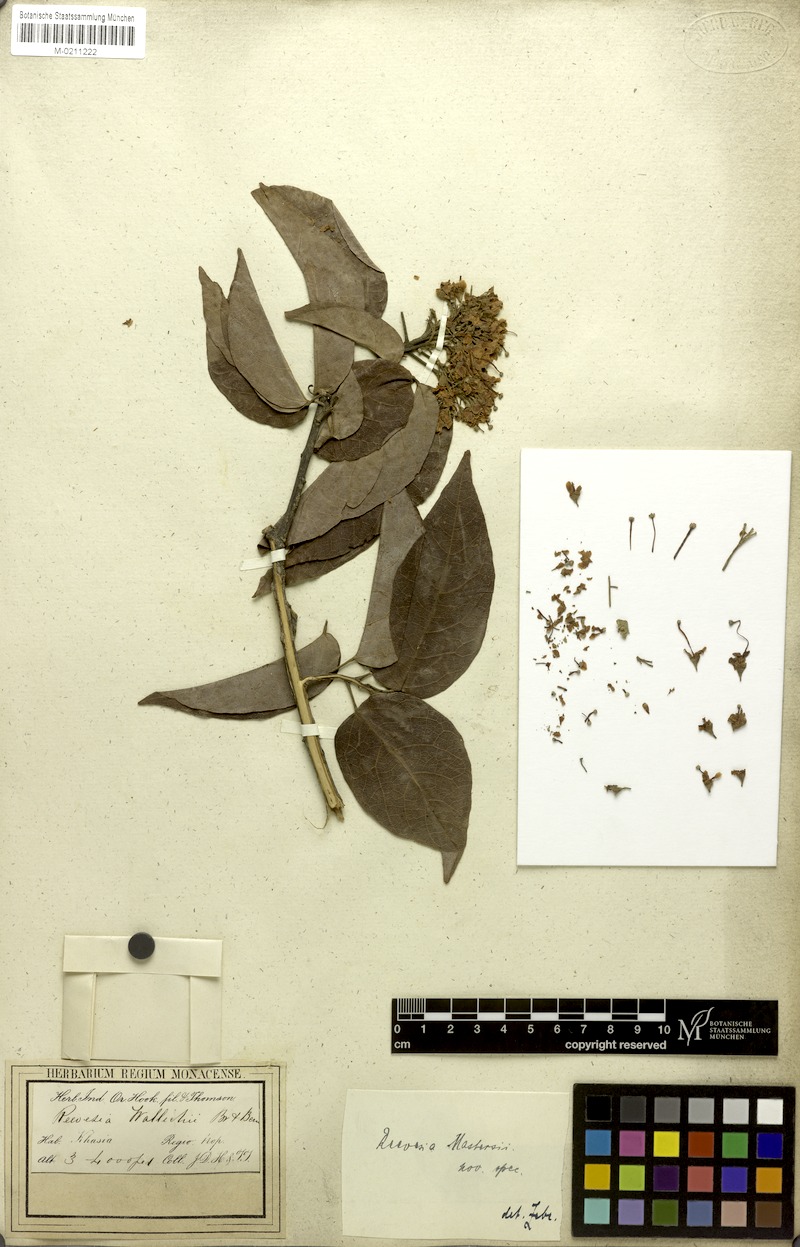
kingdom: Plantae
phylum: Tracheophyta
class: Magnoliopsida
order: Malvales
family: Malvaceae
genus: Reevesia
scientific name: Reevesia wallichii
